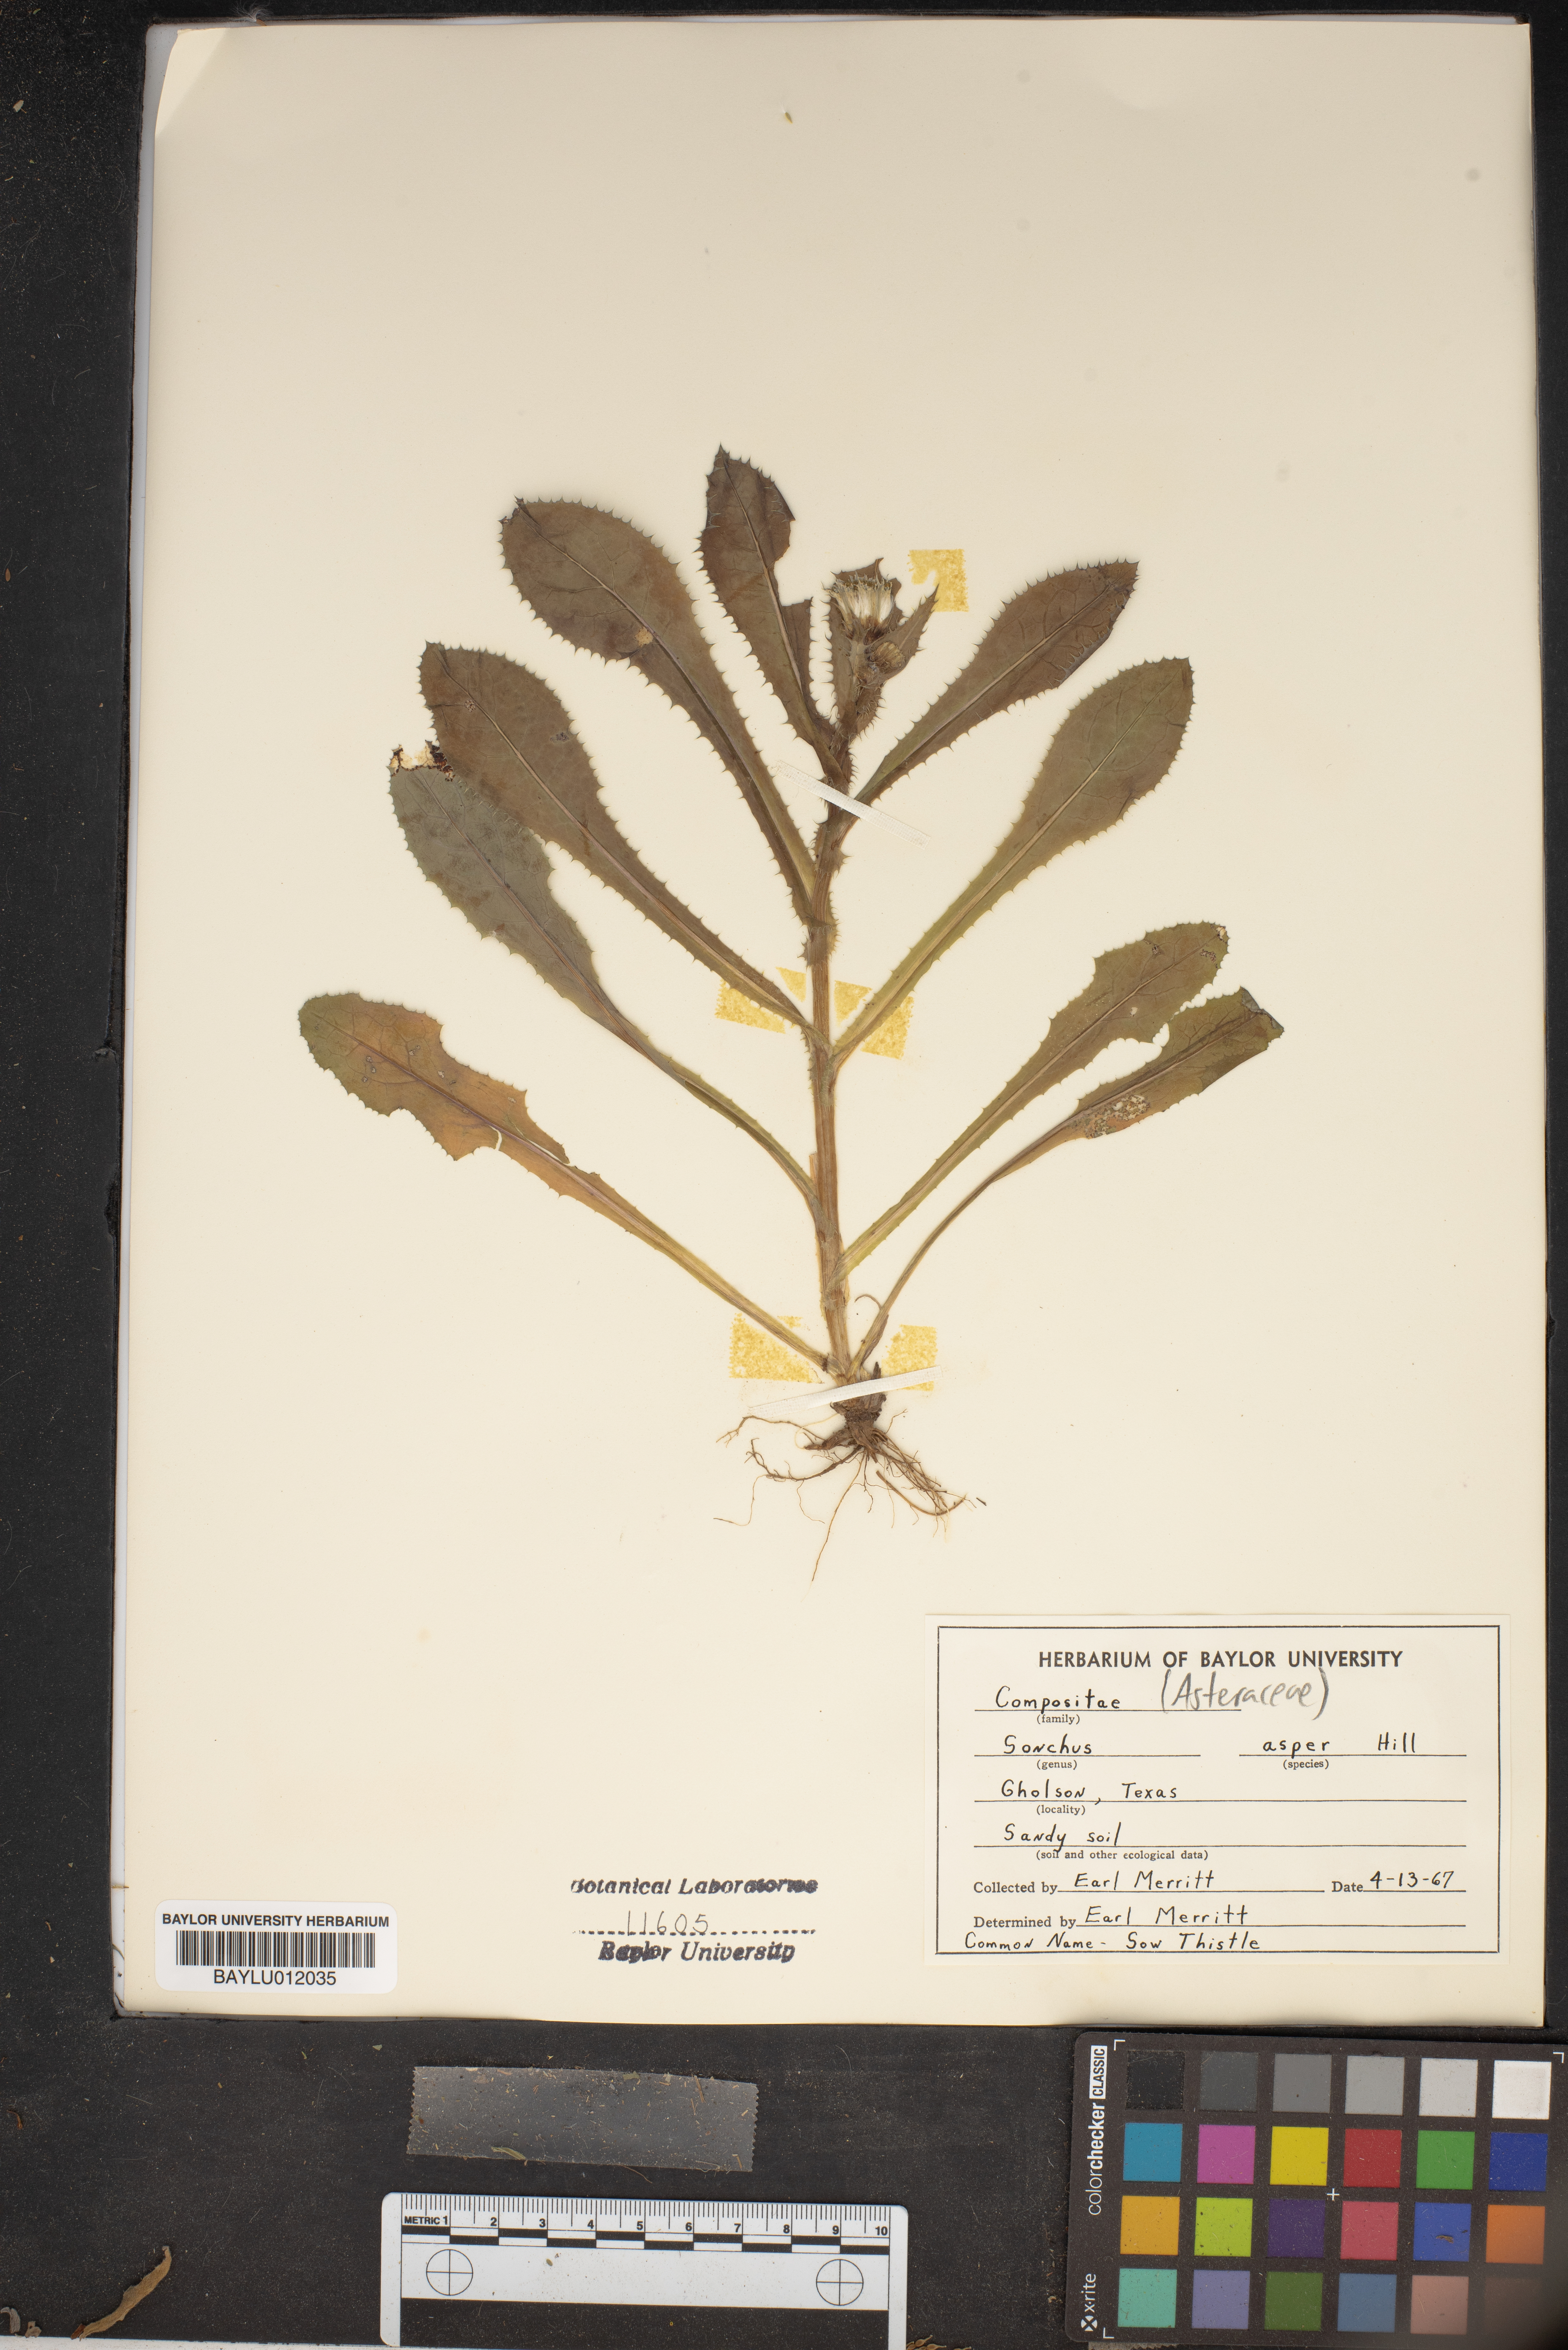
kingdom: Plantae
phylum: Tracheophyta
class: Magnoliopsida
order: Asterales
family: Asteraceae
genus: Sonchus
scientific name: Sonchus asper
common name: Prickly sow-thistle
